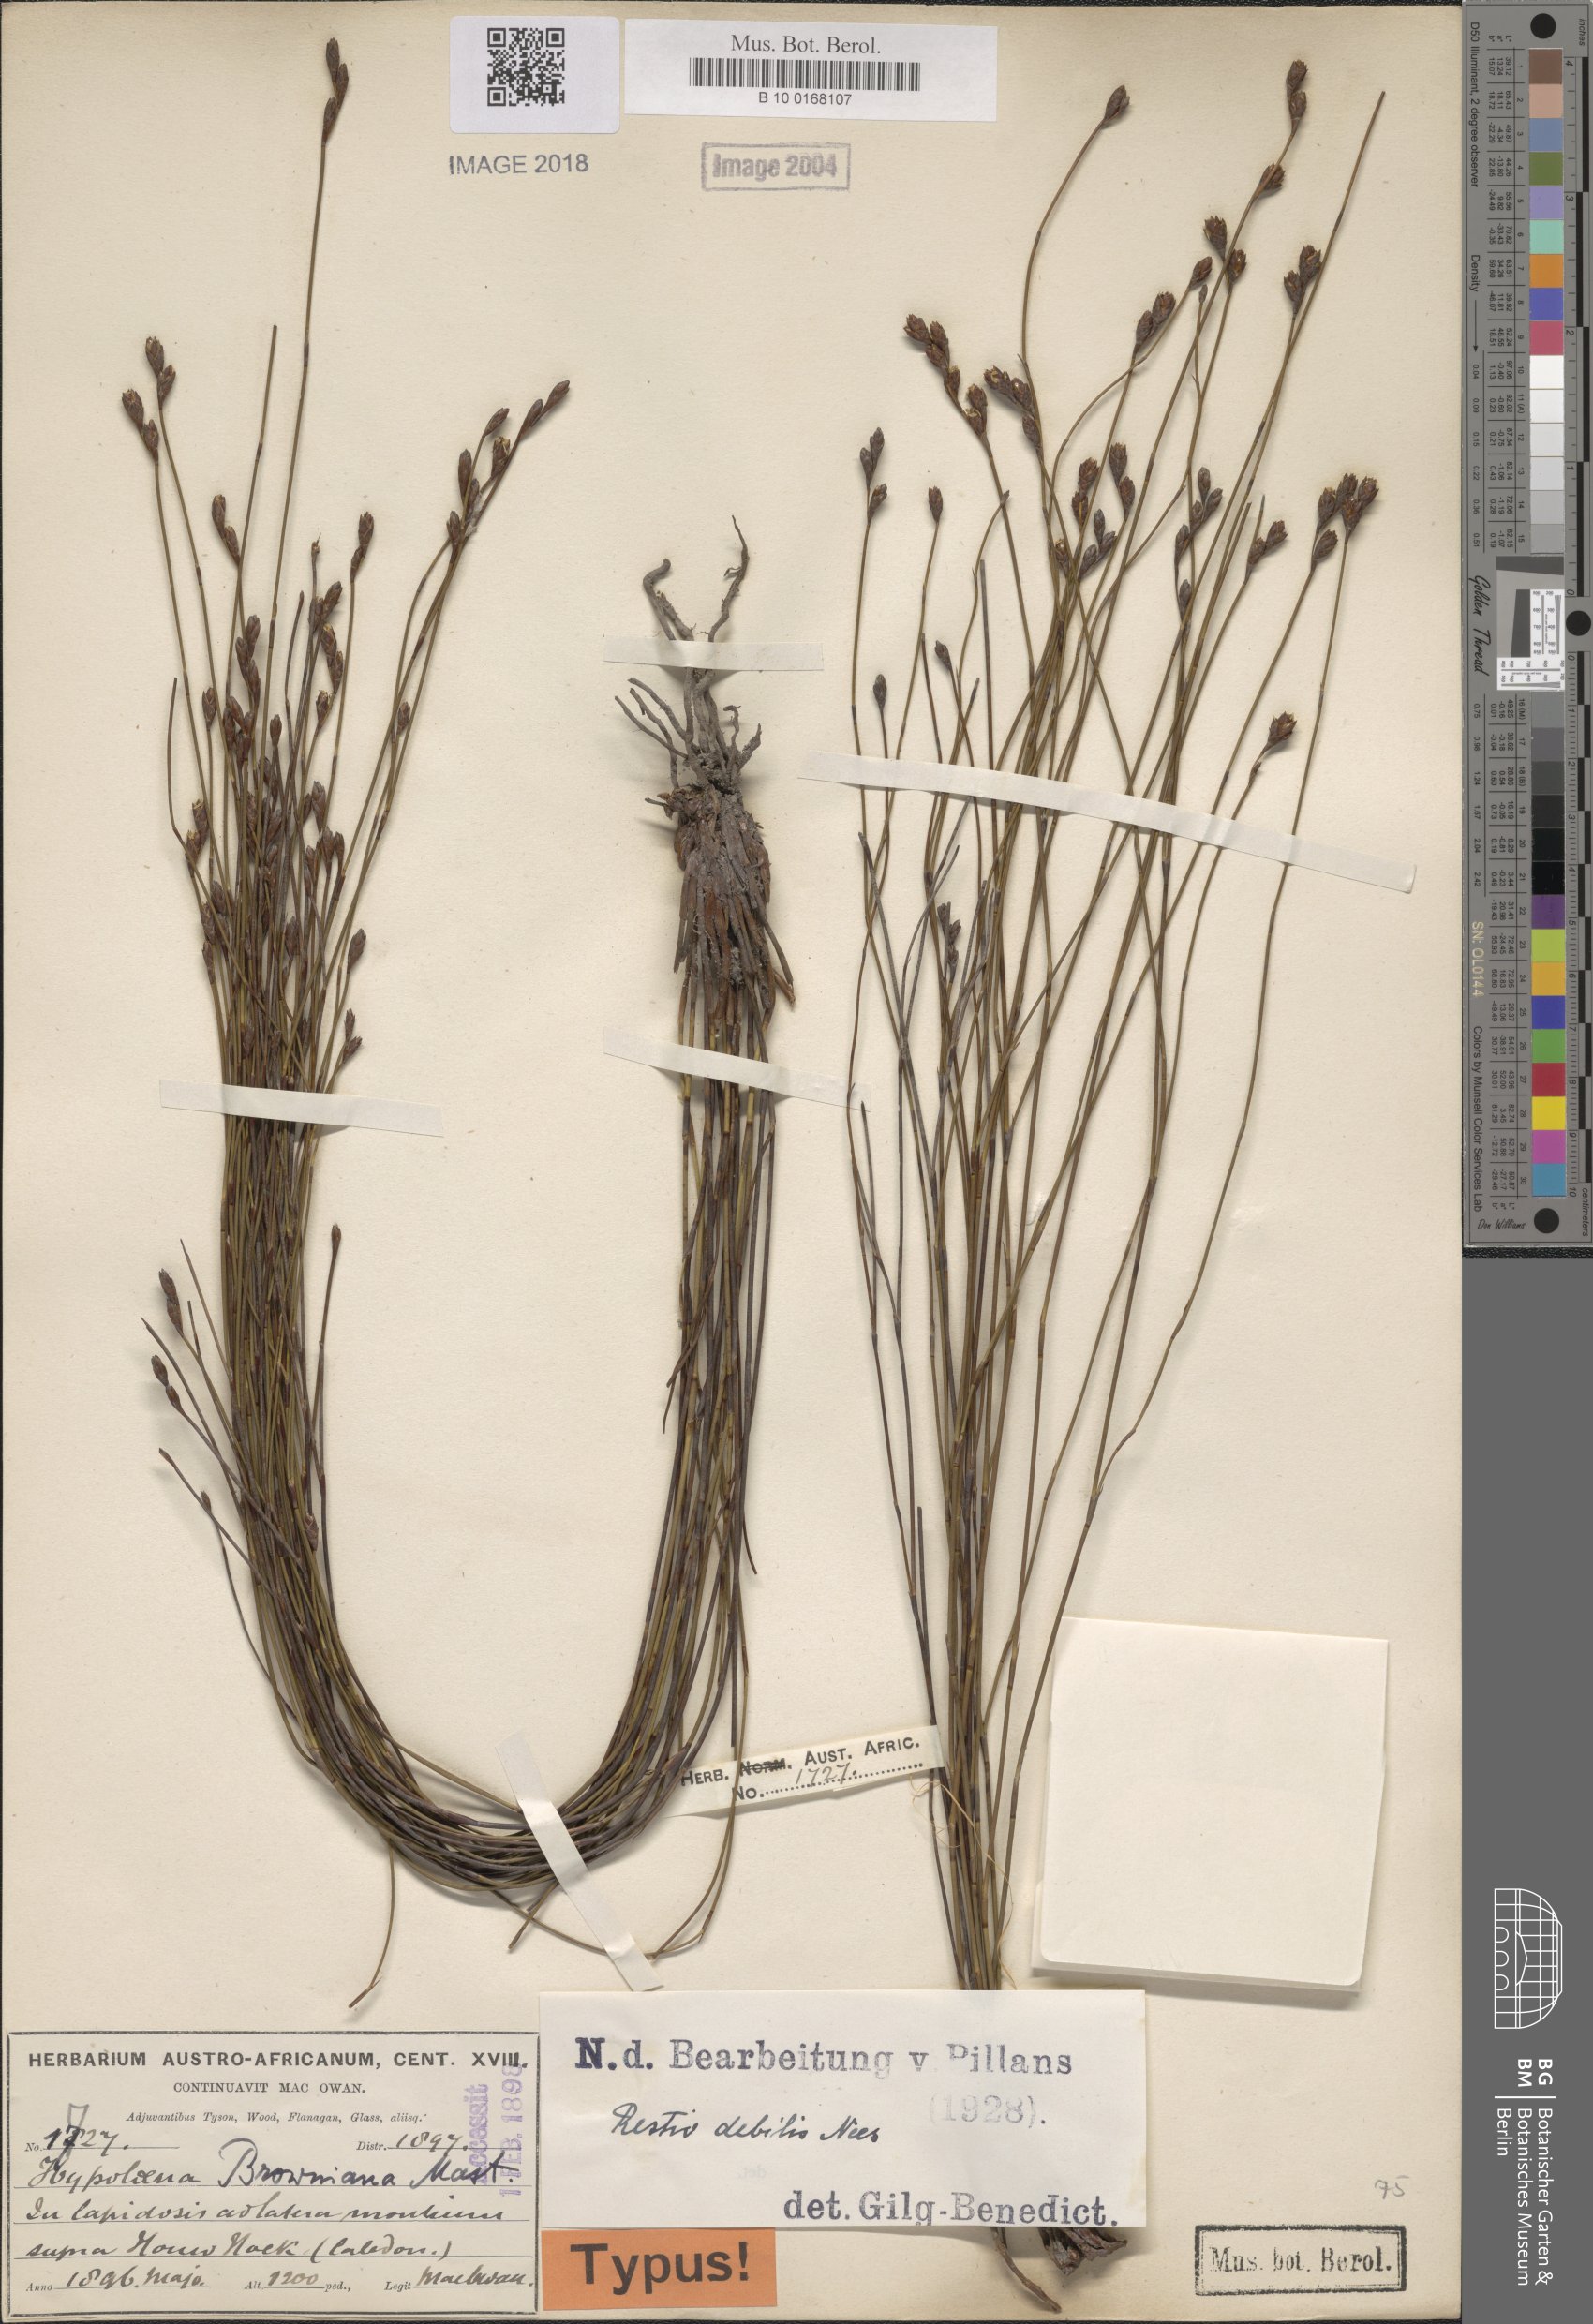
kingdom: Plantae
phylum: Tracheophyta
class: Liliopsida
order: Poales
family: Restionaceae
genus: Restio
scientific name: Restio debilis
